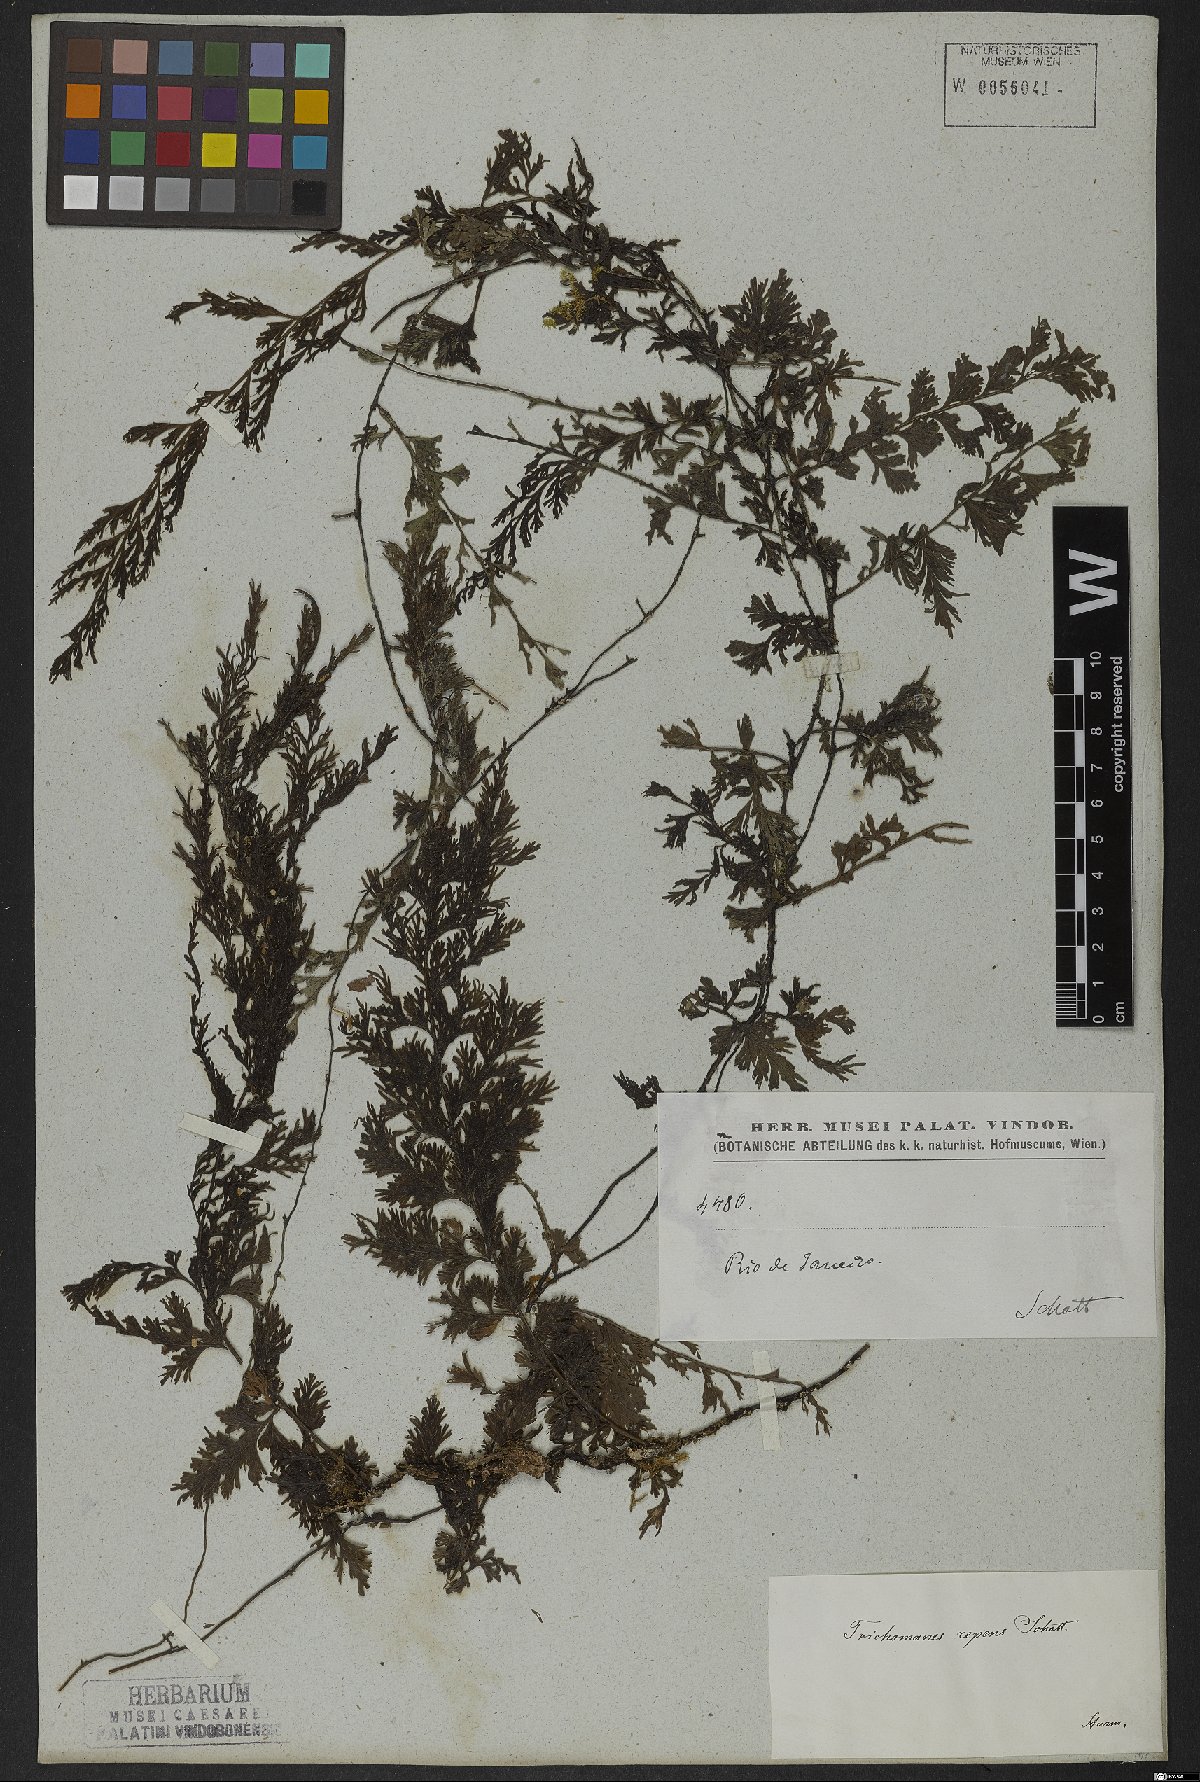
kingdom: Plantae
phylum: Tracheophyta
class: Polypodiopsida
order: Hymenophyllales
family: Hymenophyllaceae
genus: Vandenboschia
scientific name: Vandenboschia radicans
